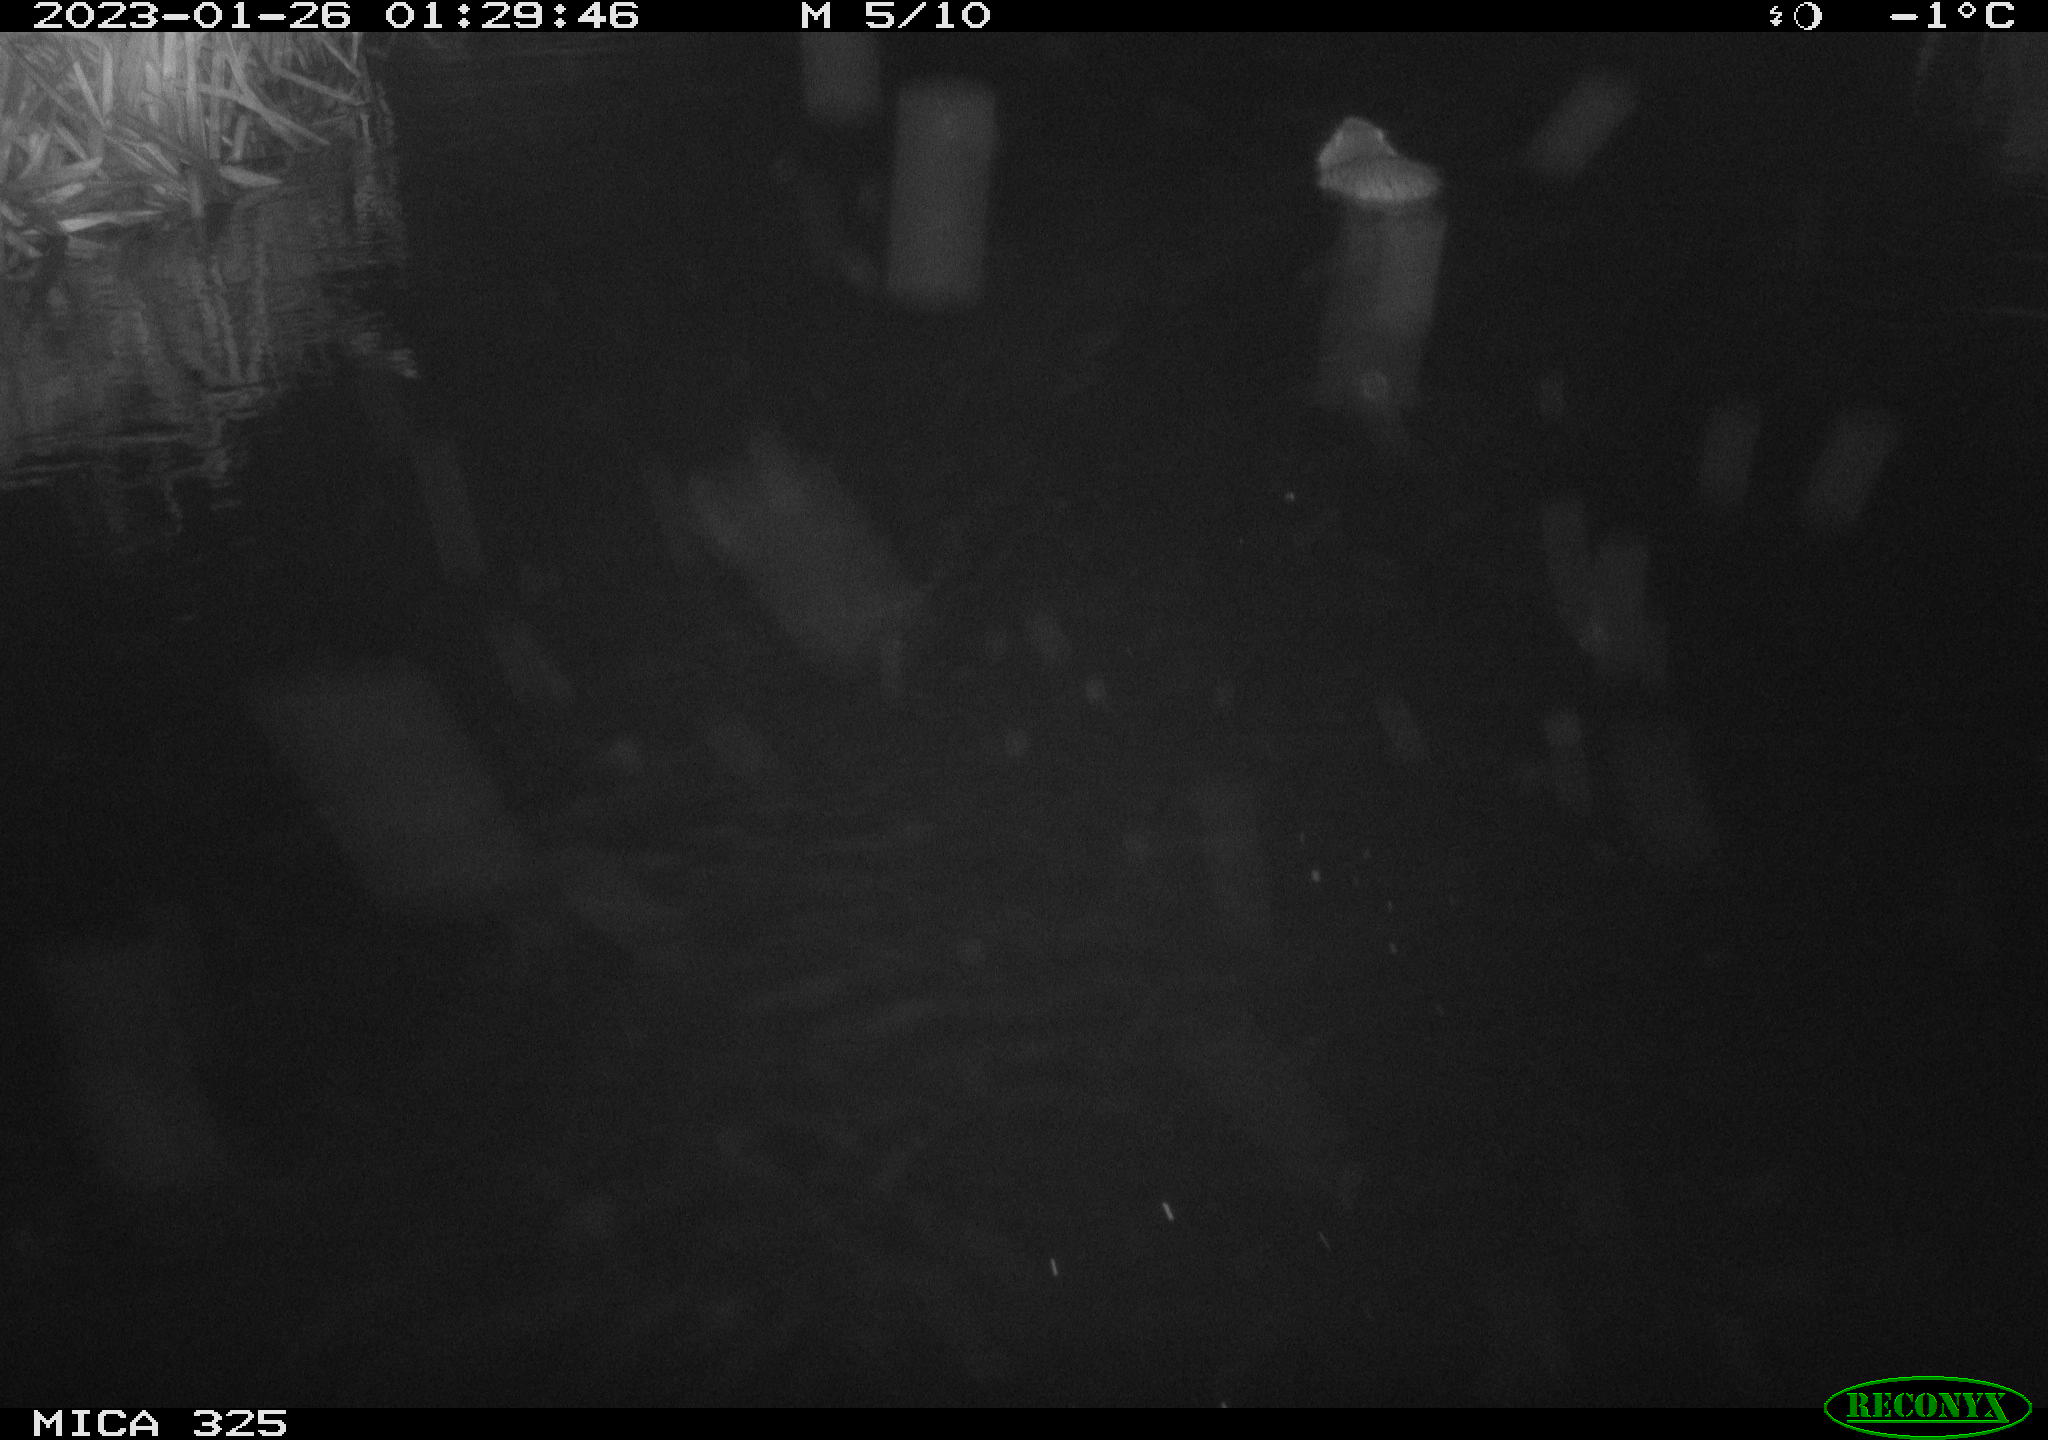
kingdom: Animalia
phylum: Chordata
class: Mammalia
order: Rodentia
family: Myocastoridae
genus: Myocastor
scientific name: Myocastor coypus
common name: Coypu
